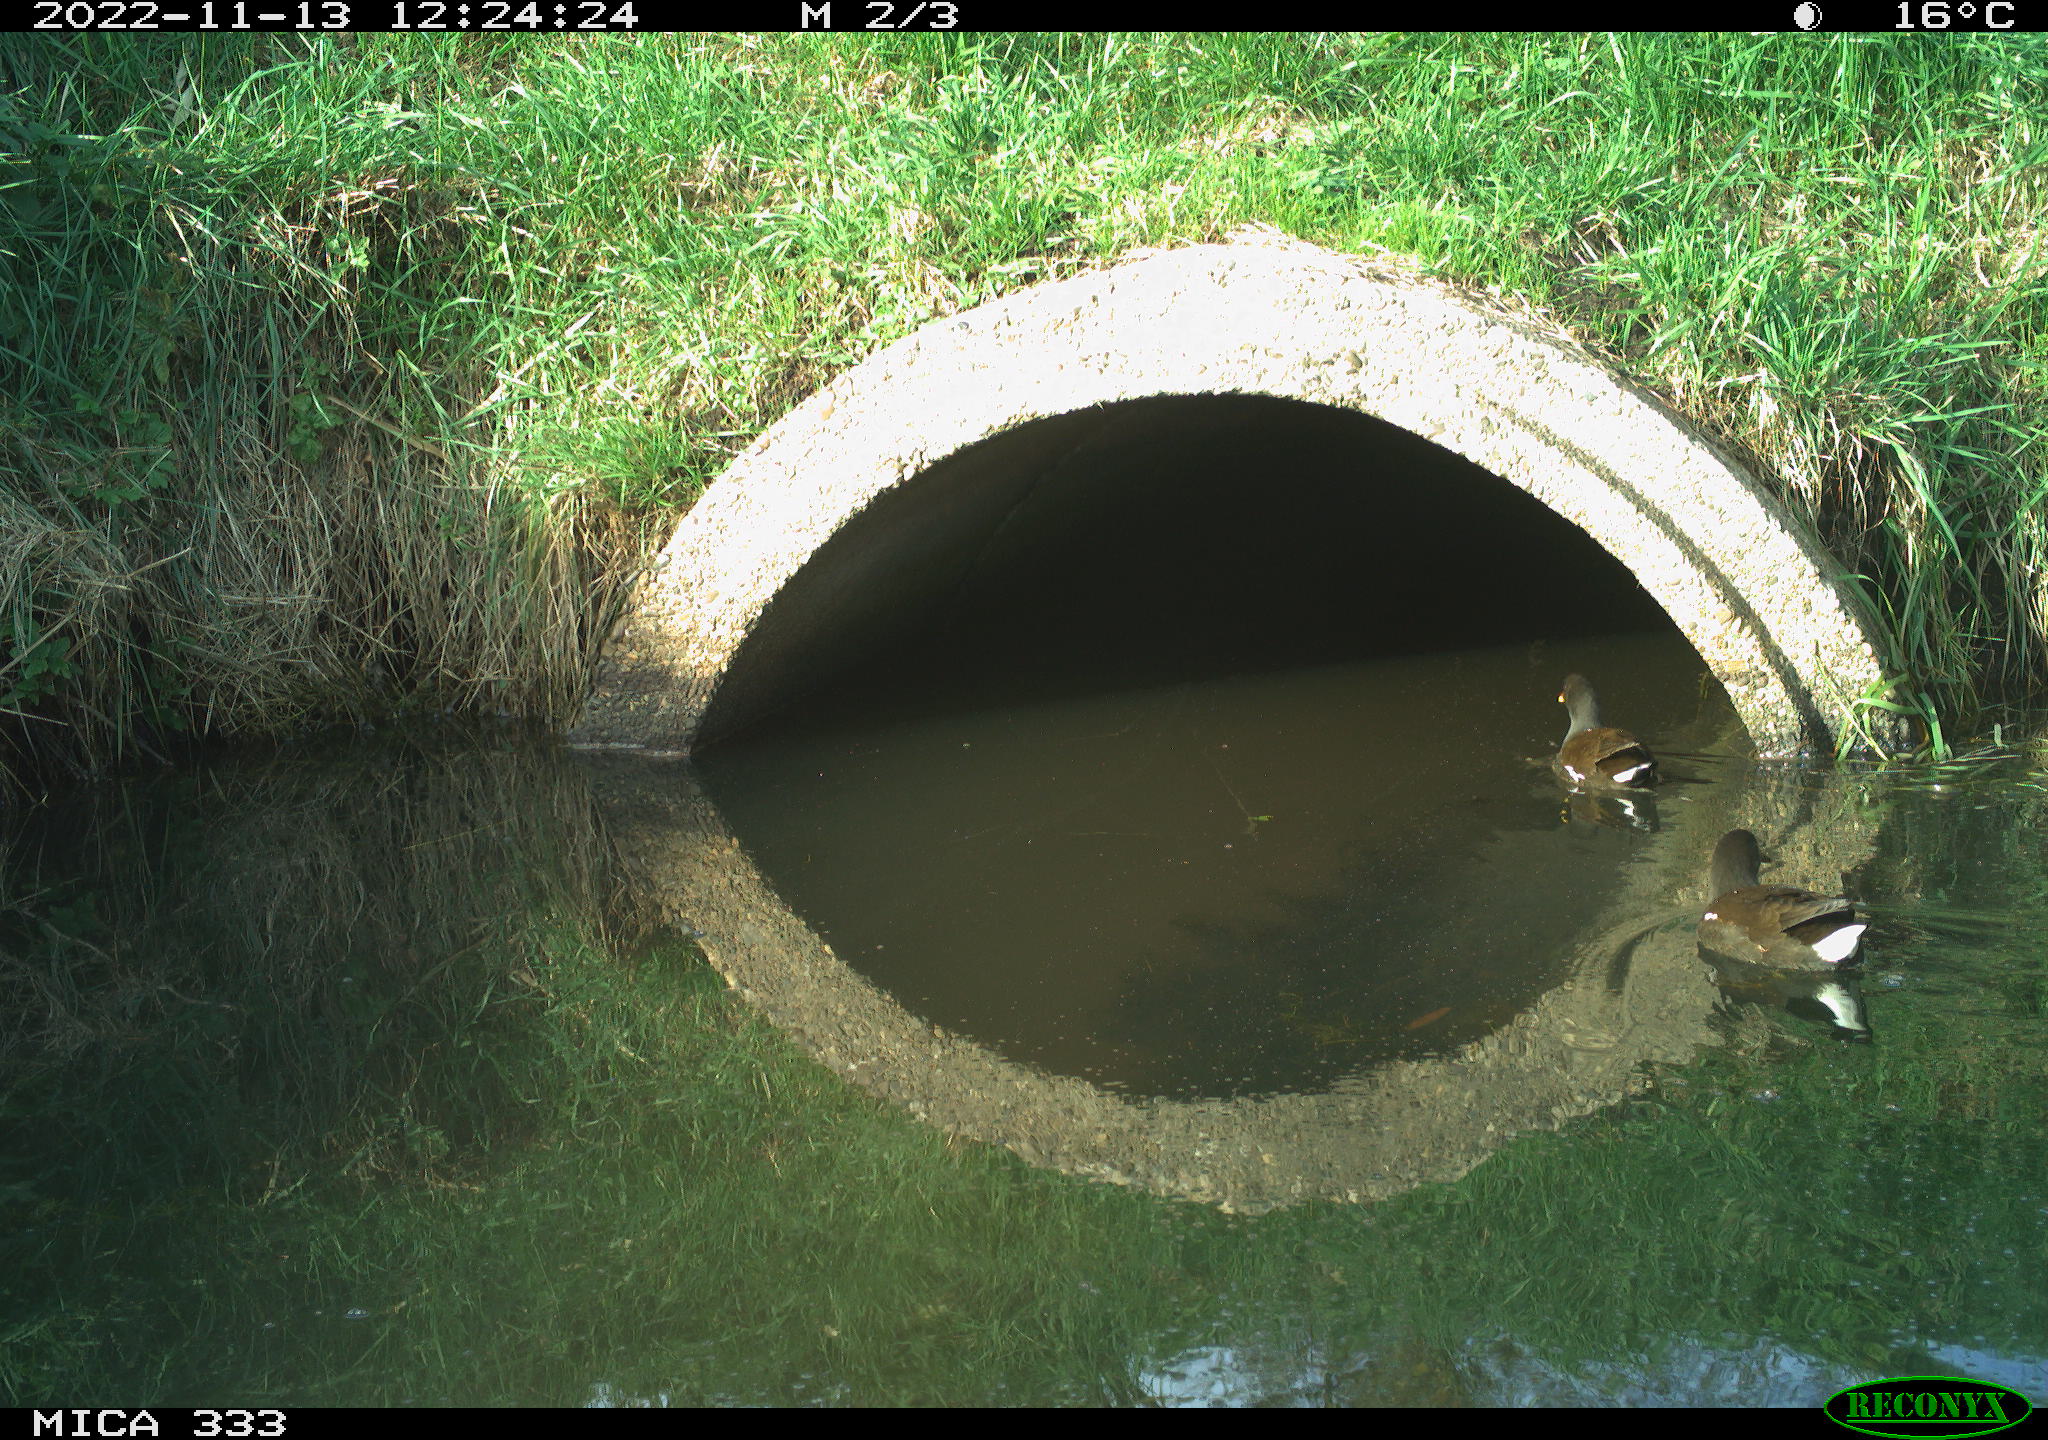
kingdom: Animalia
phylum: Chordata
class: Aves
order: Gruiformes
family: Rallidae
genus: Gallinula
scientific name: Gallinula chloropus
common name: Common moorhen
